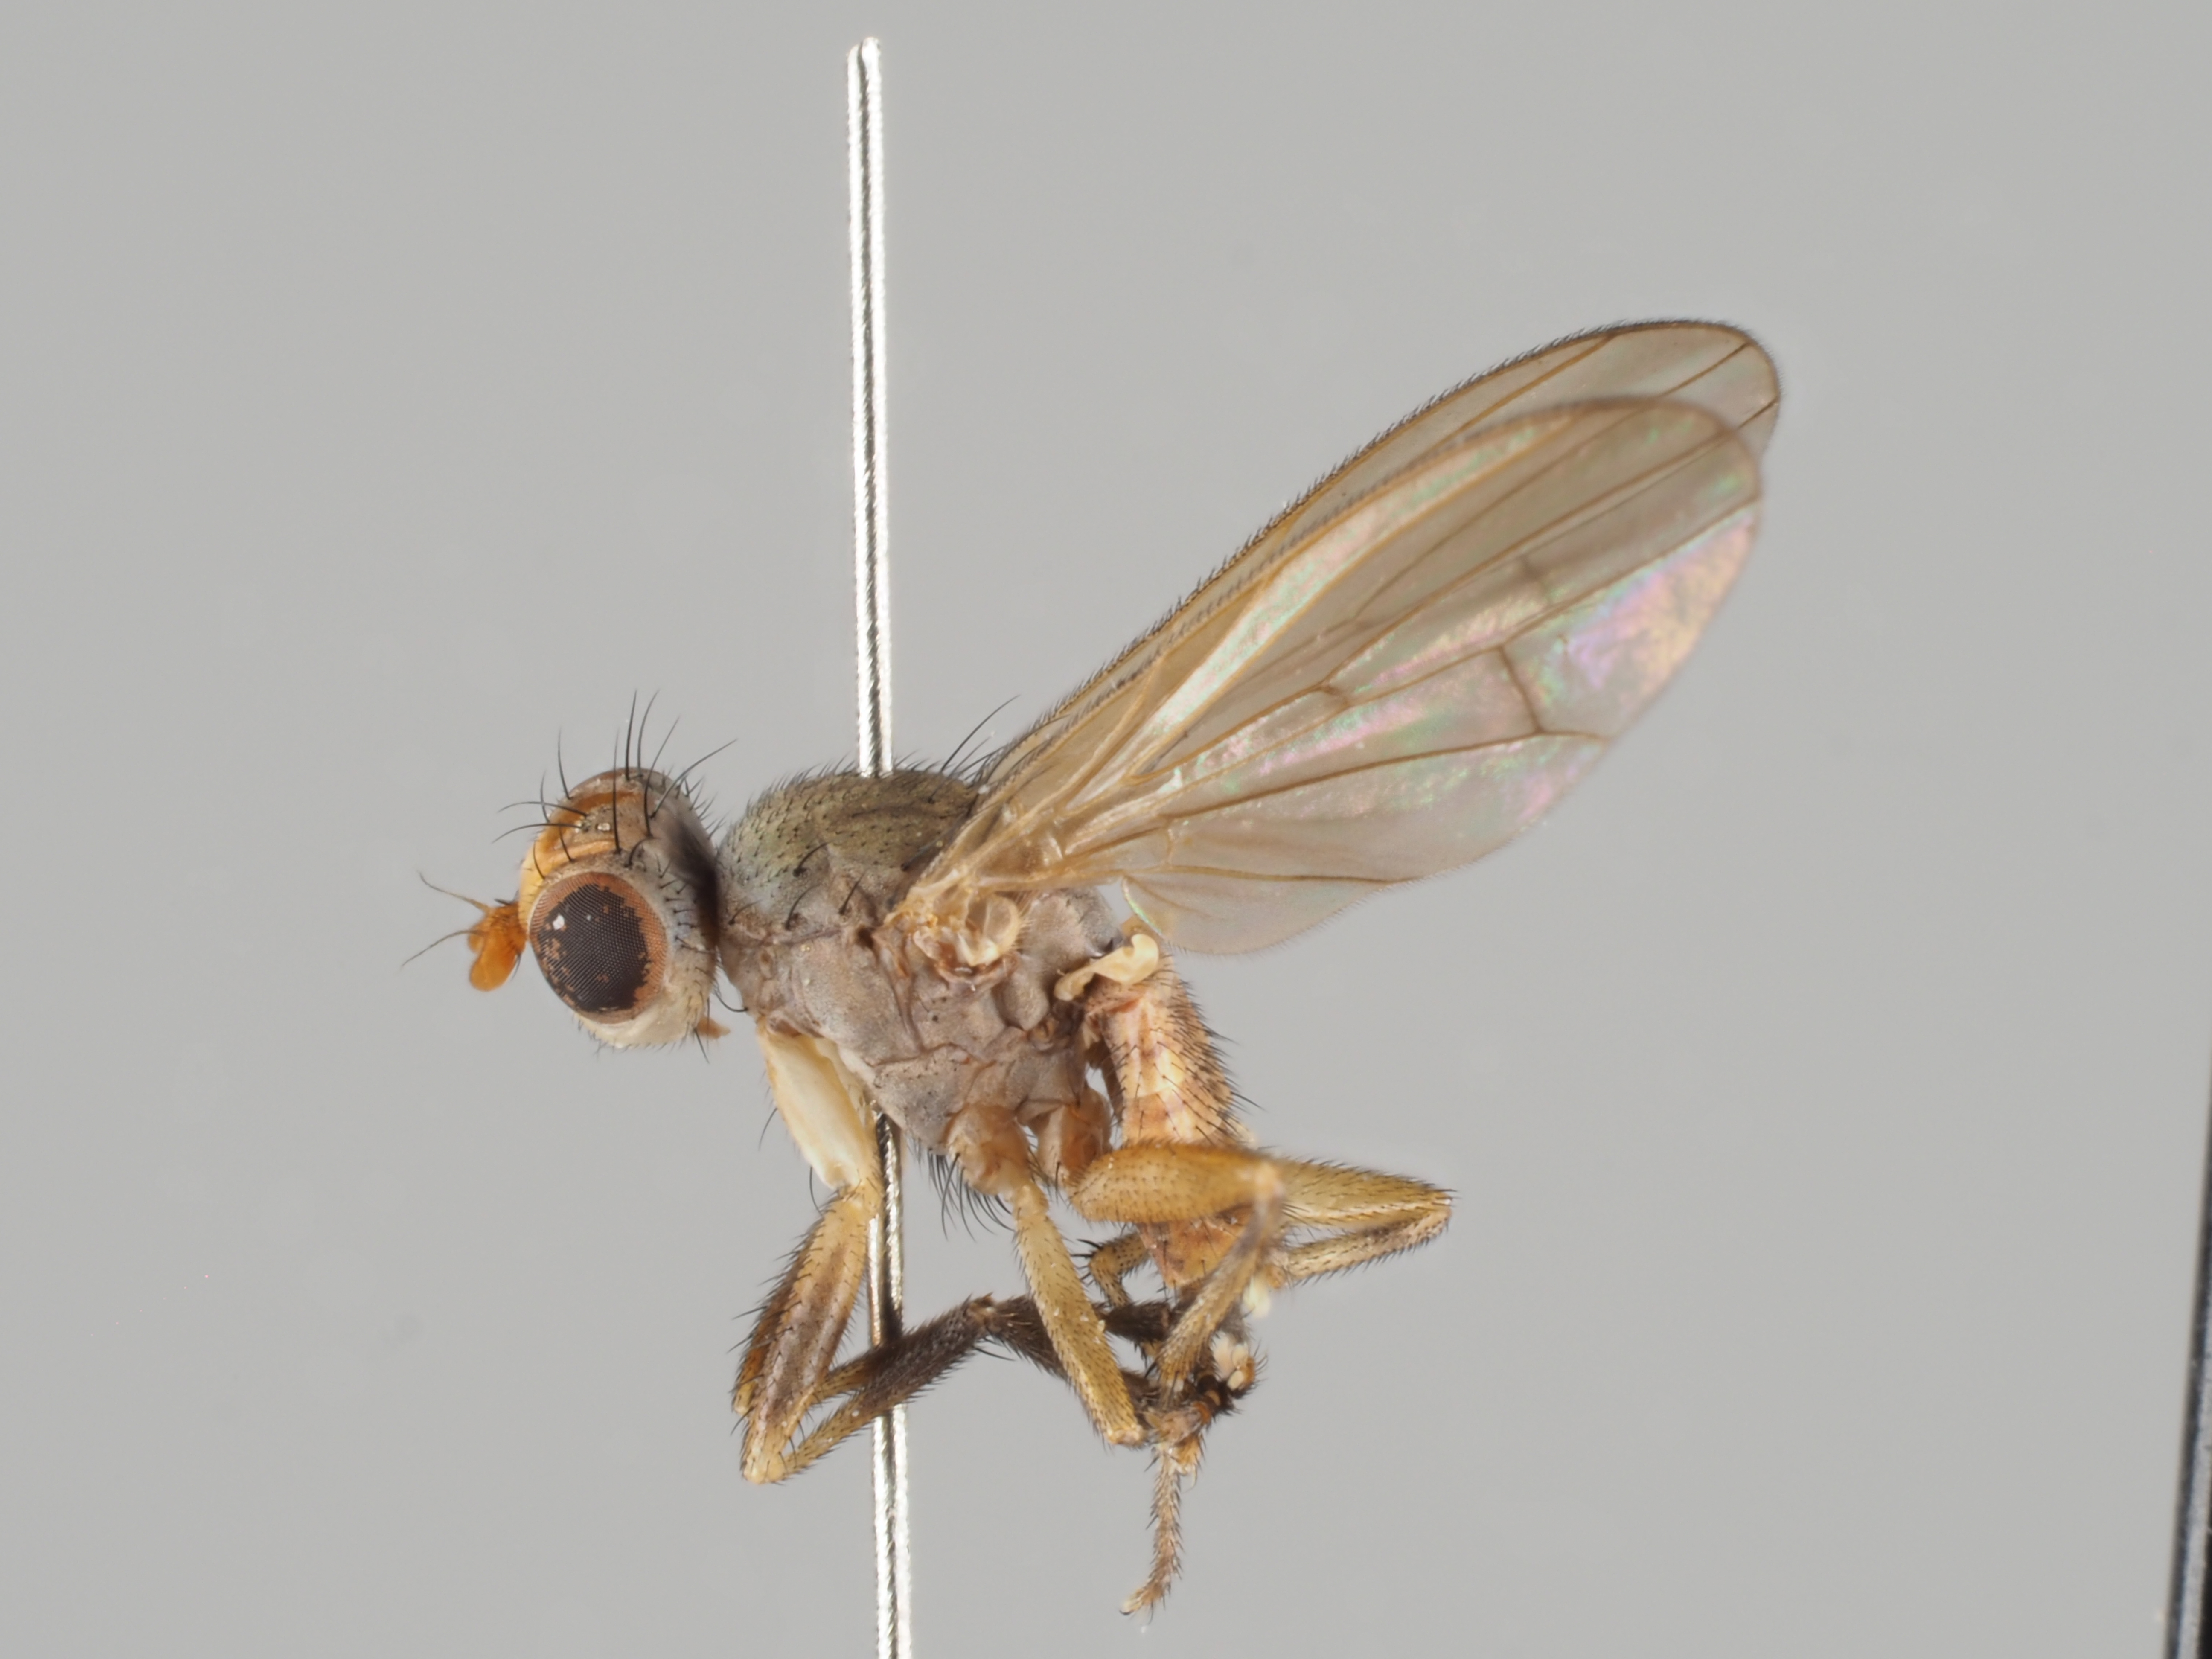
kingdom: Animalia
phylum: Arthropoda
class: Insecta
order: Diptera
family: Sciomyzidae
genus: Pherbellia
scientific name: Pherbellia ventralis
